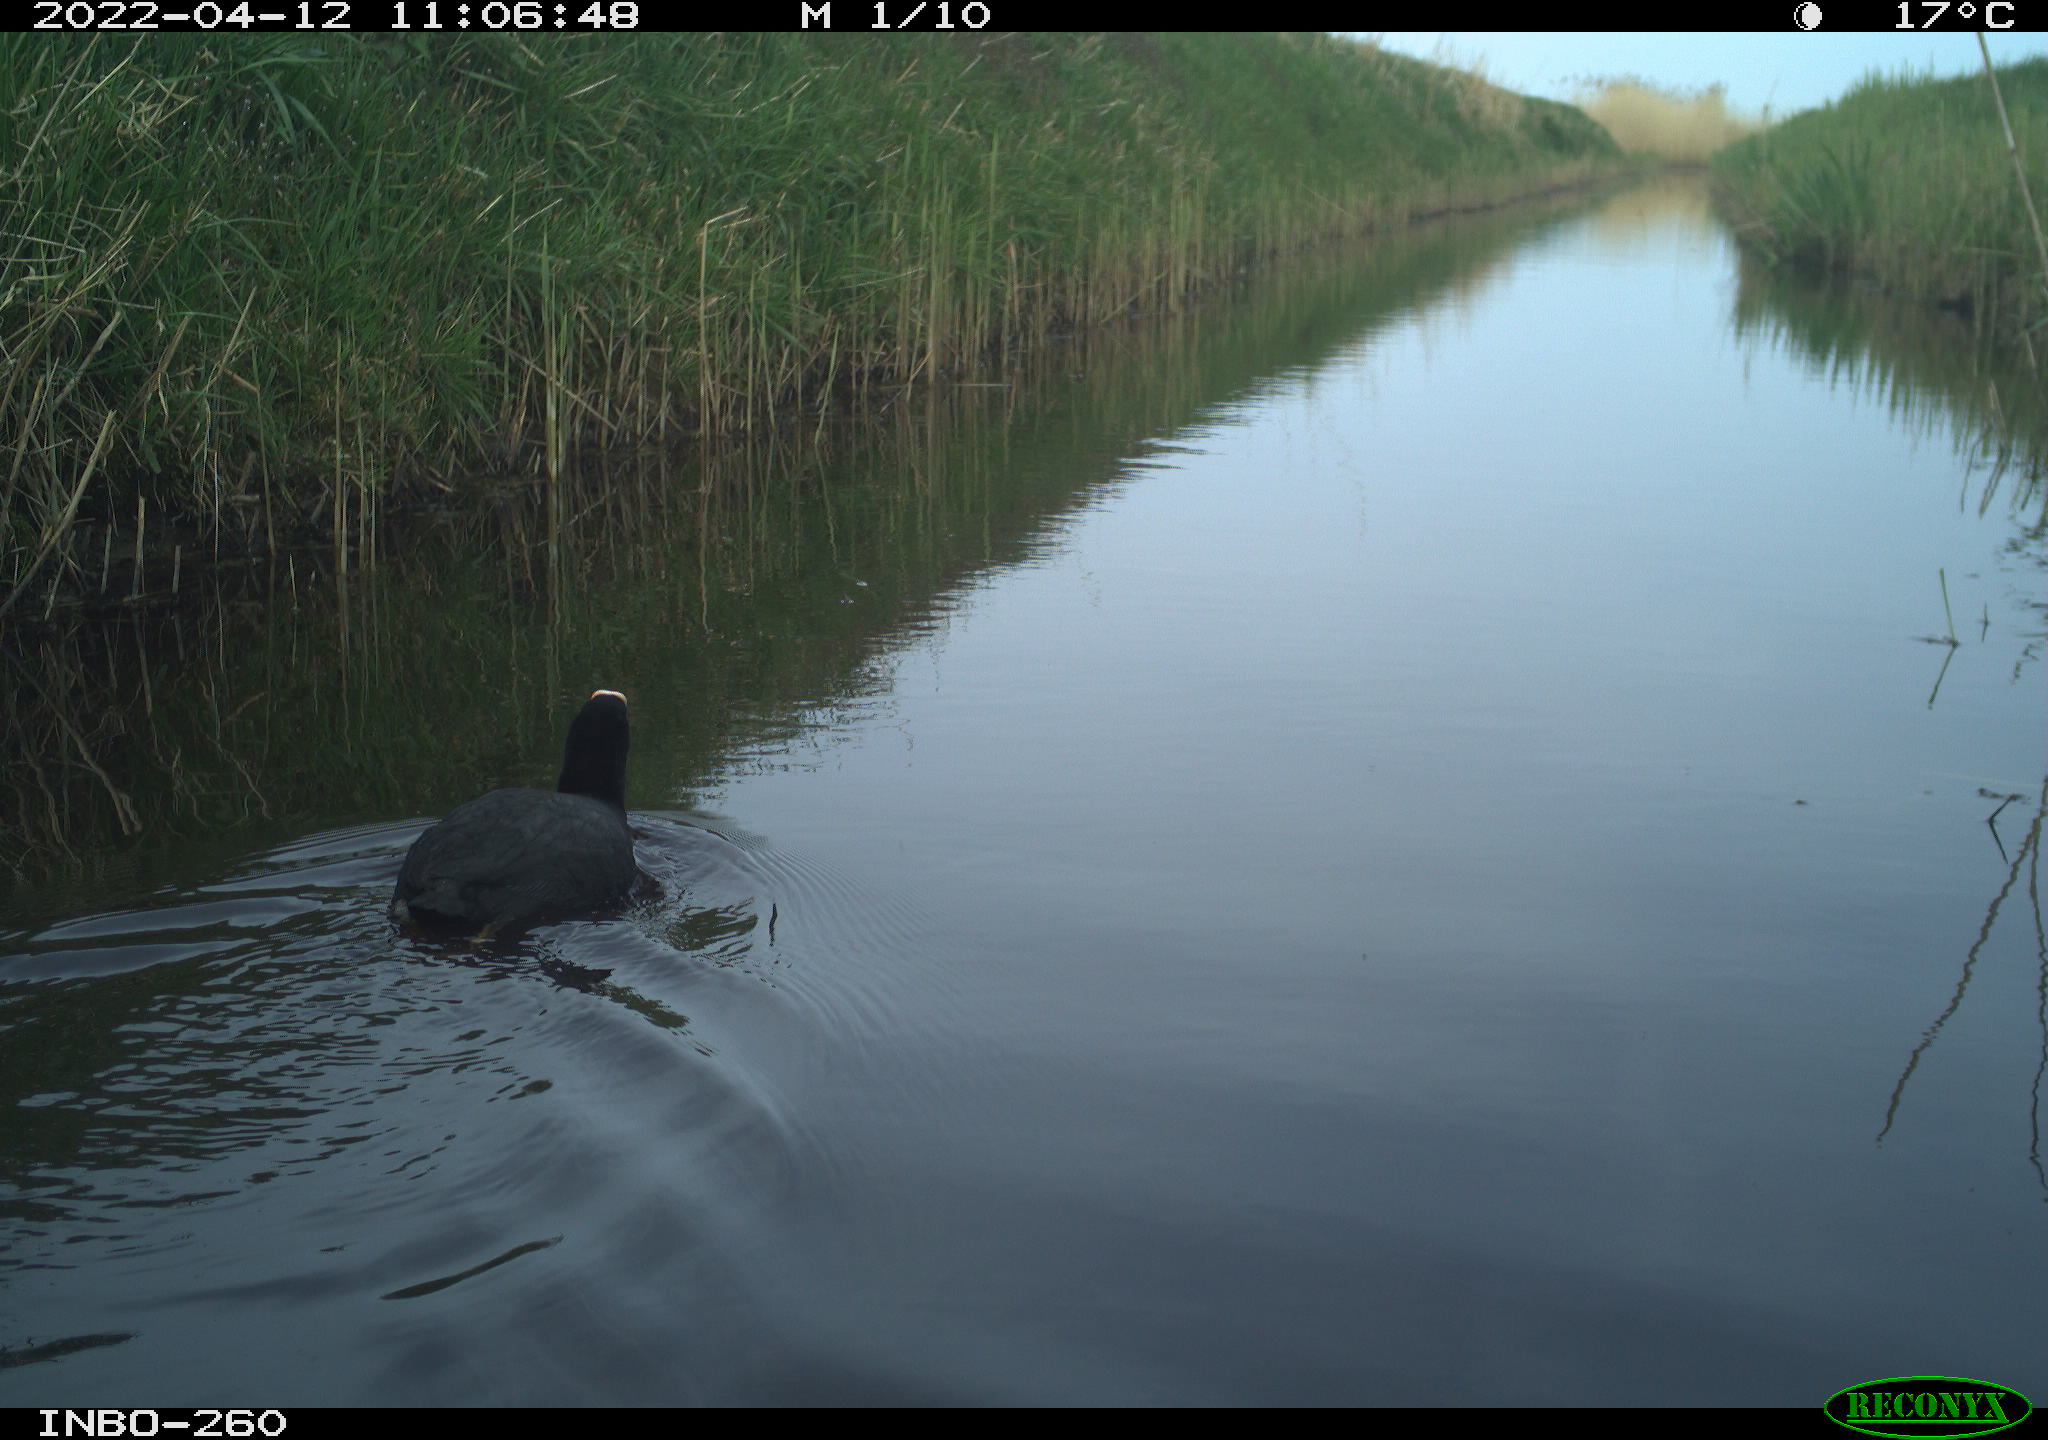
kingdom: Animalia
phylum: Chordata
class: Aves
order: Gruiformes
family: Rallidae
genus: Fulica
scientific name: Fulica atra
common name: Eurasian coot
